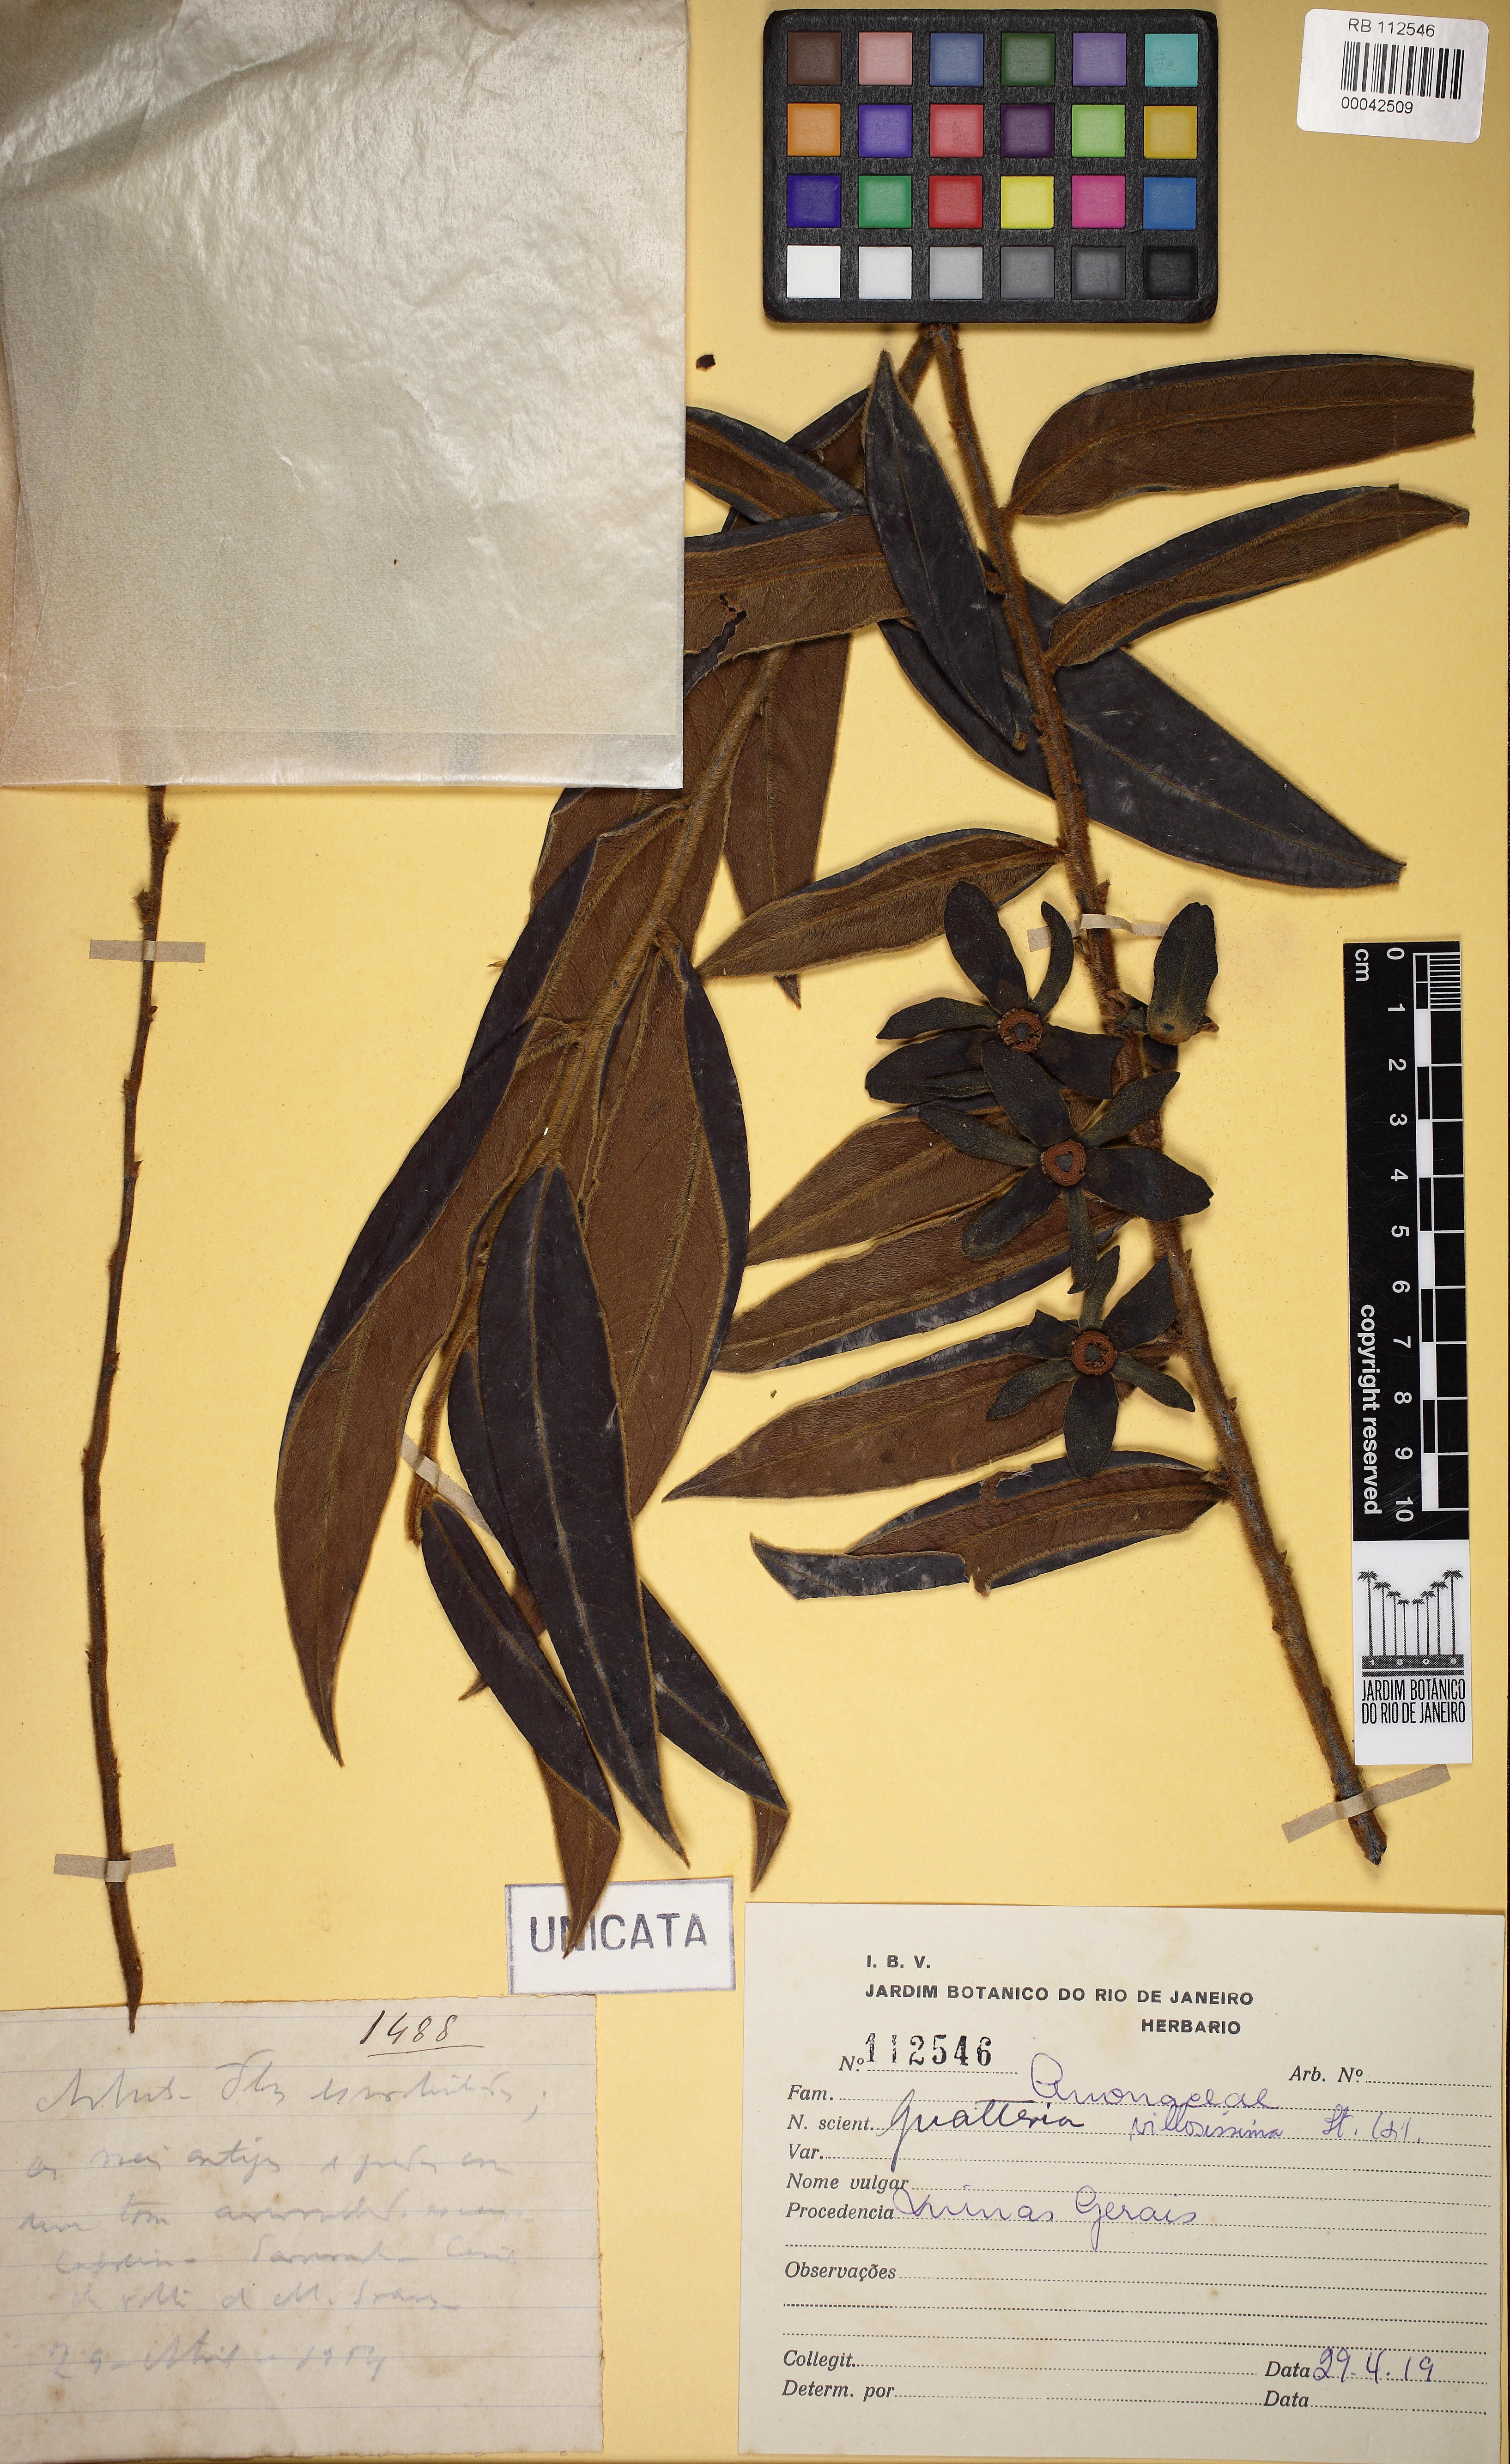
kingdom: Plantae
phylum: Tracheophyta
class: Magnoliopsida
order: Magnoliales
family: Annonaceae
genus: Guatteria
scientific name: Guatteria villosissima
